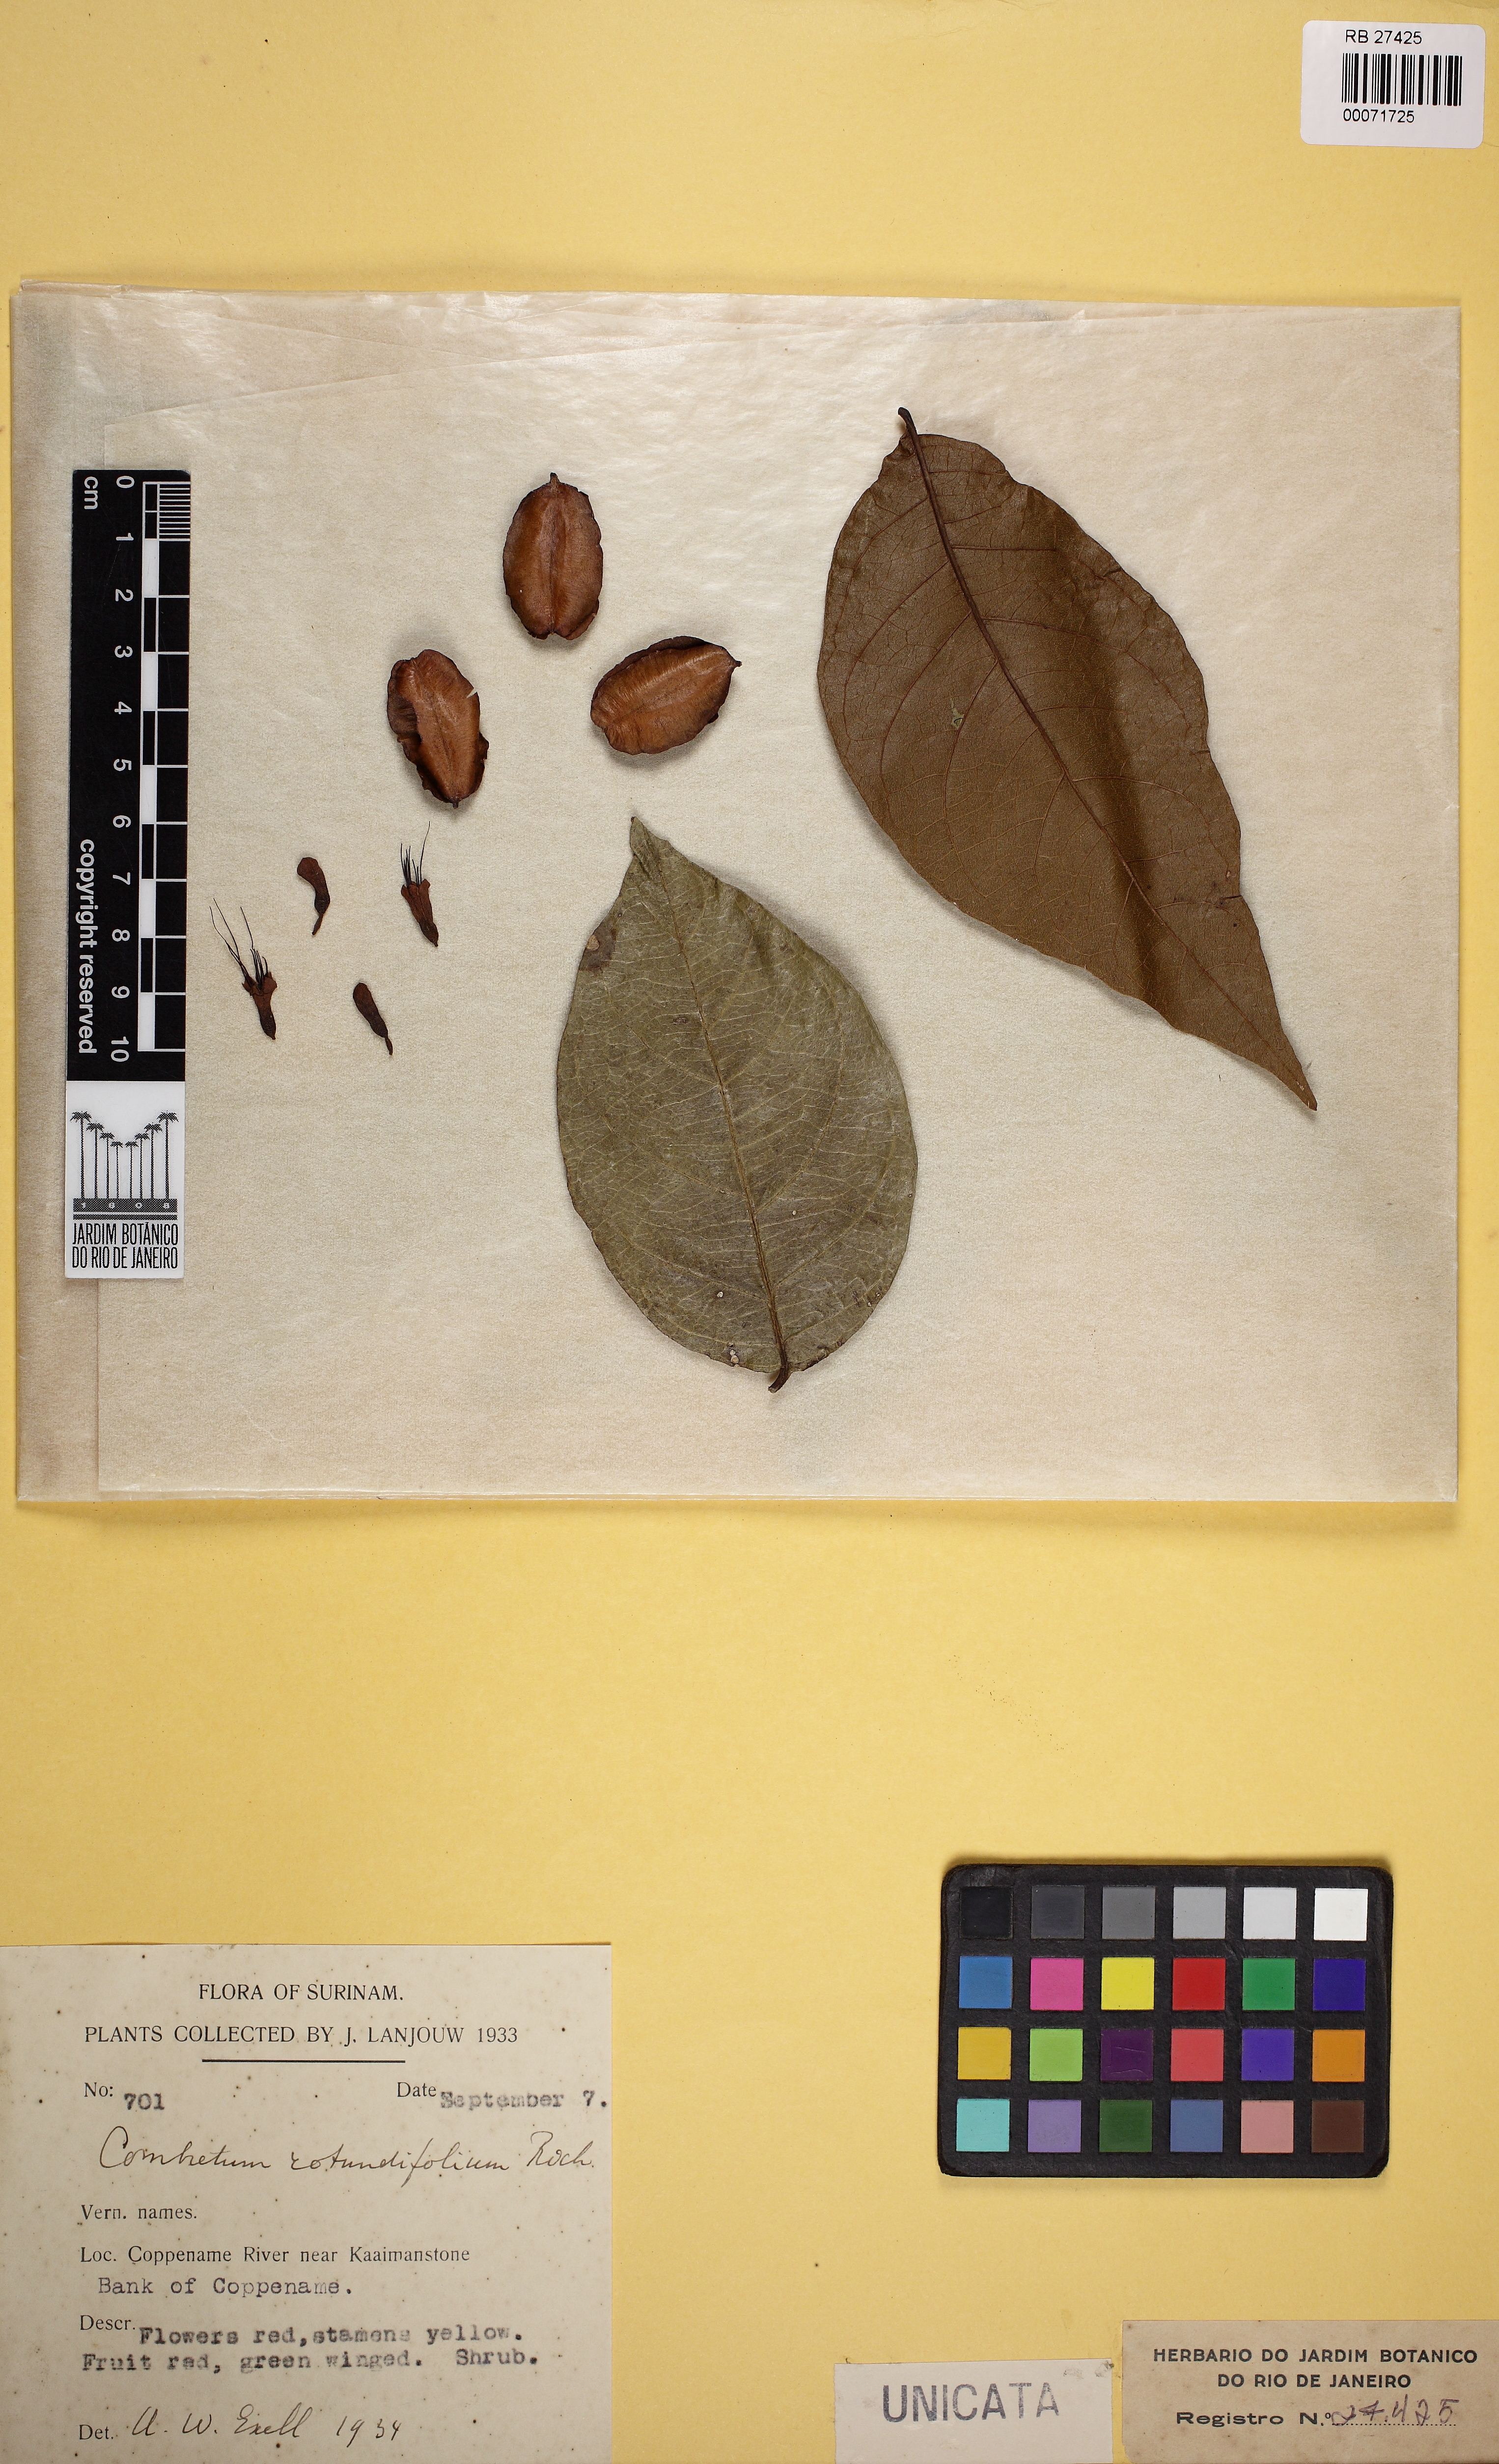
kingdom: Plantae
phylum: Tracheophyta
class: Magnoliopsida
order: Myrtales
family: Combretaceae
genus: Combretum
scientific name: Combretum rotundifolium
